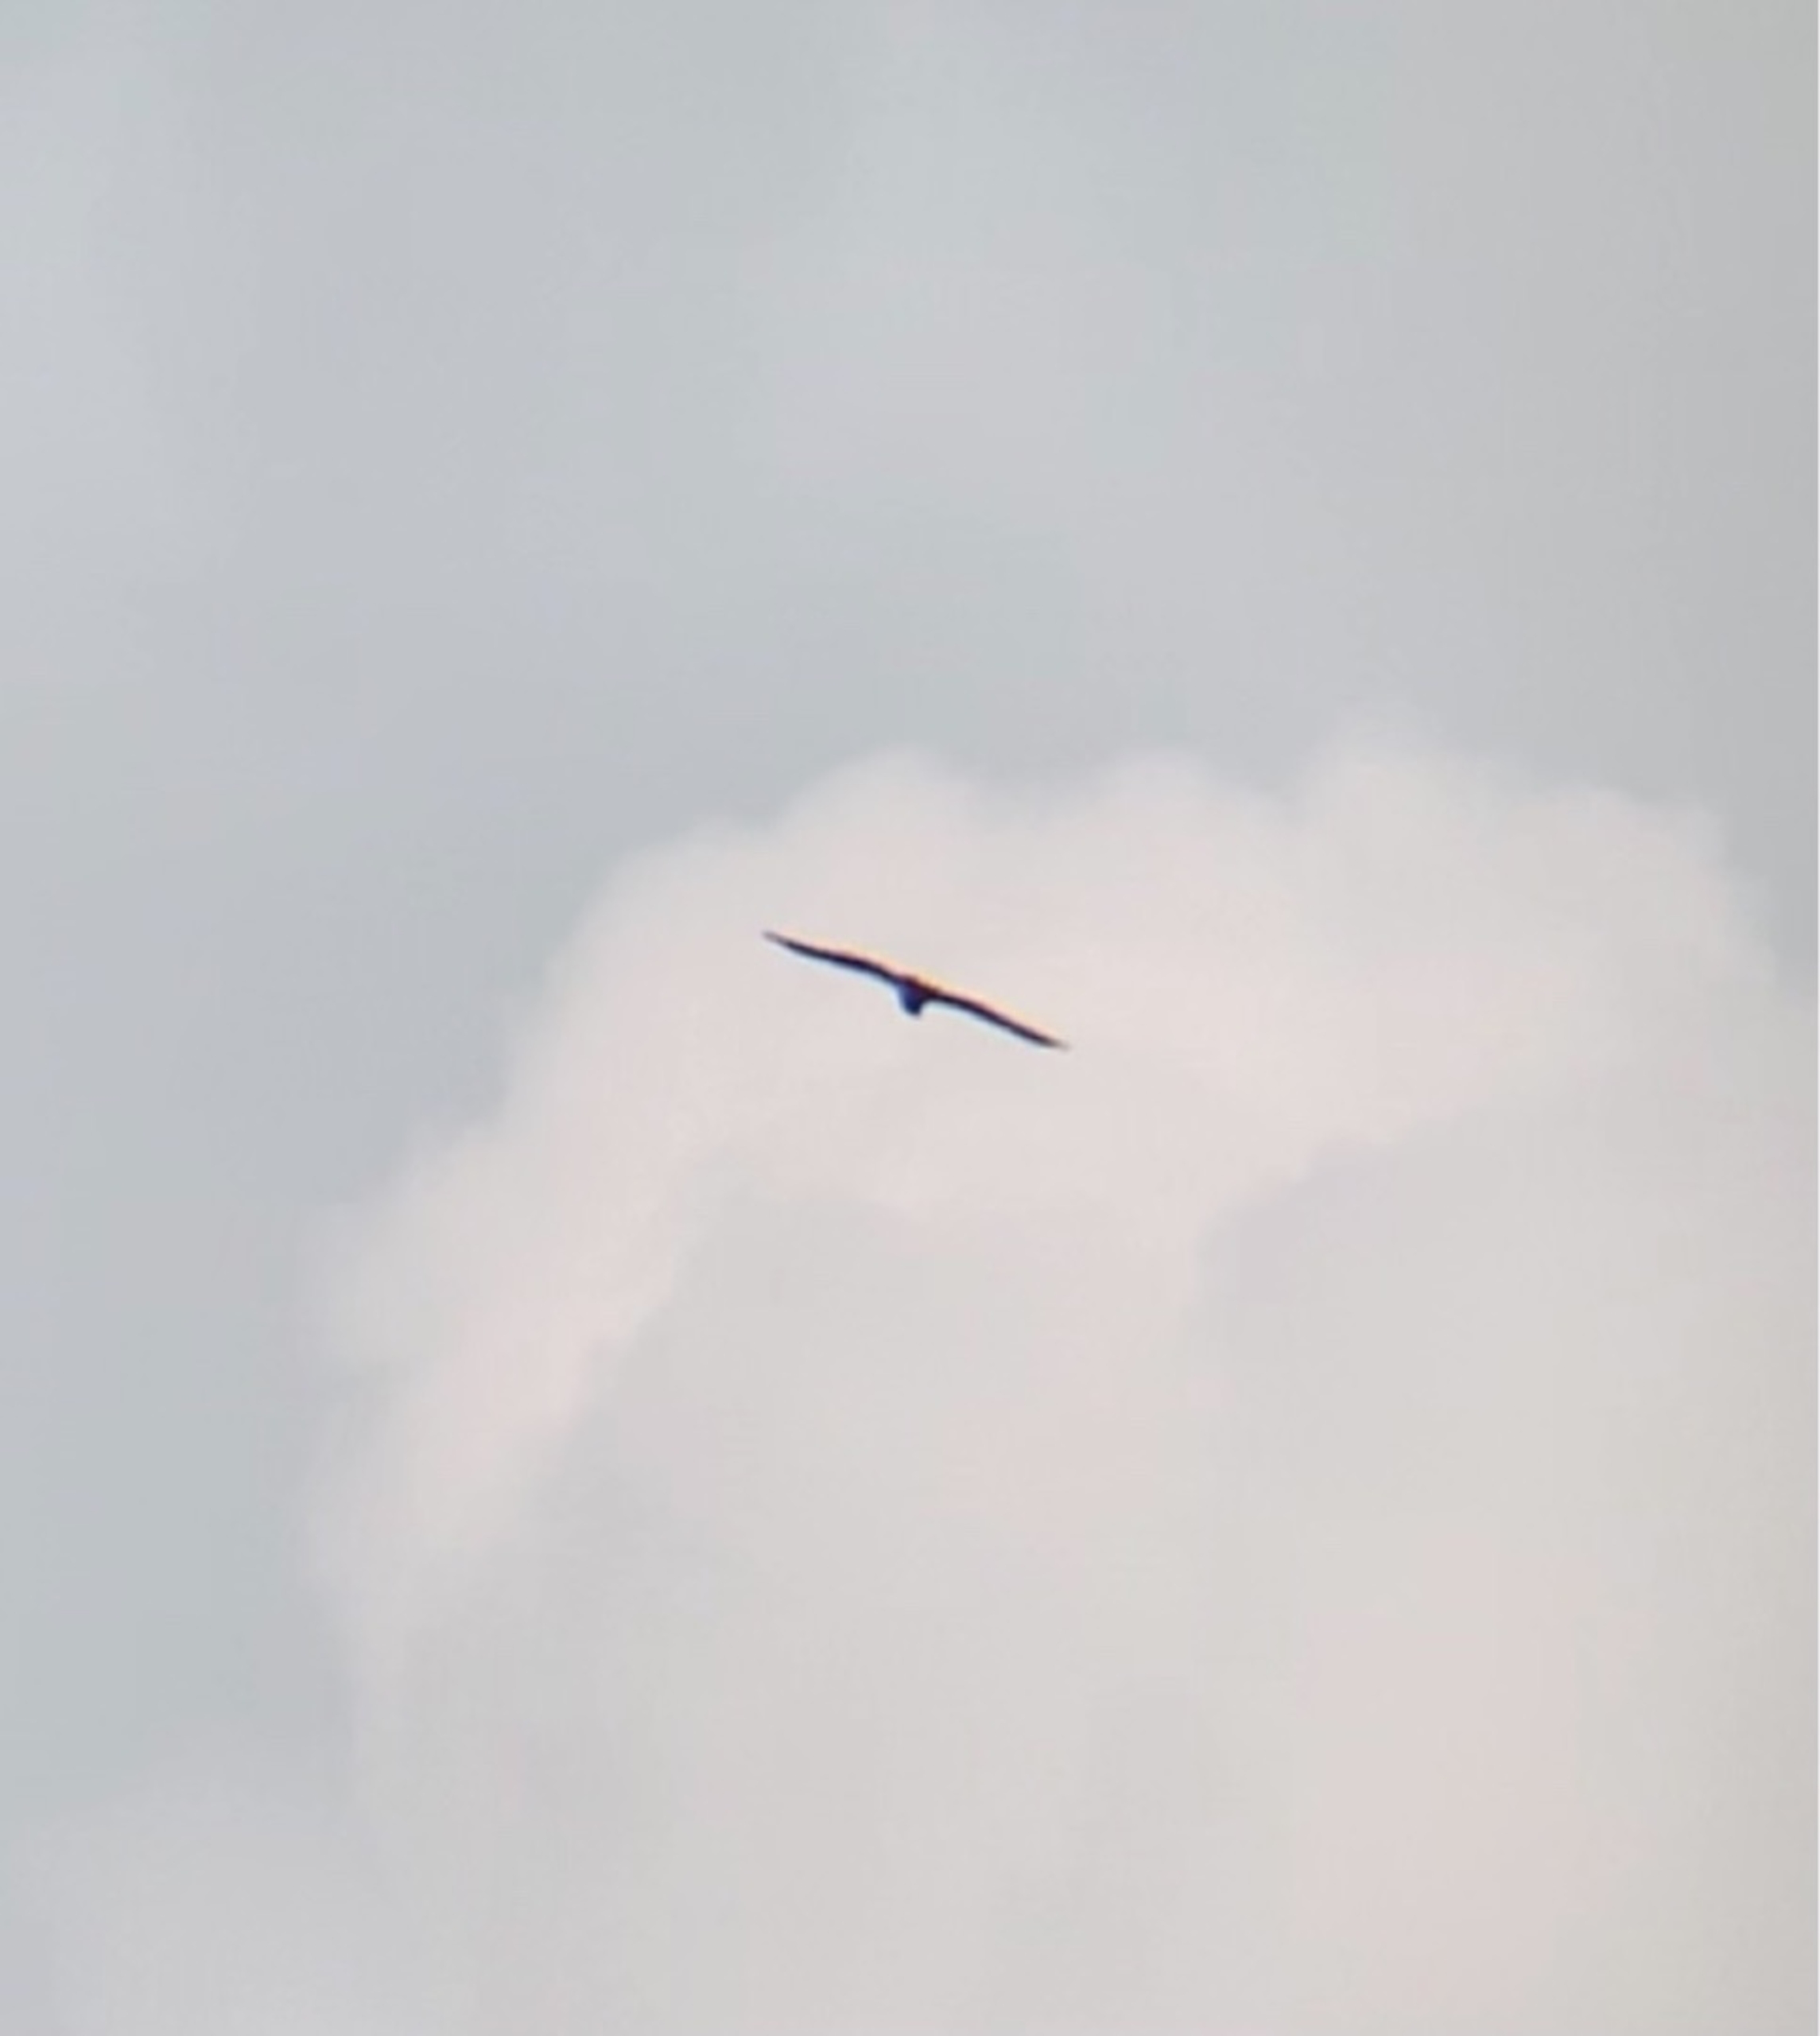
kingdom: Animalia
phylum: Chordata
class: Aves
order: Accipitriformes
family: Pandionidae
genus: Pandion
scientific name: Pandion haliaetus
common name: Fiskeørn
